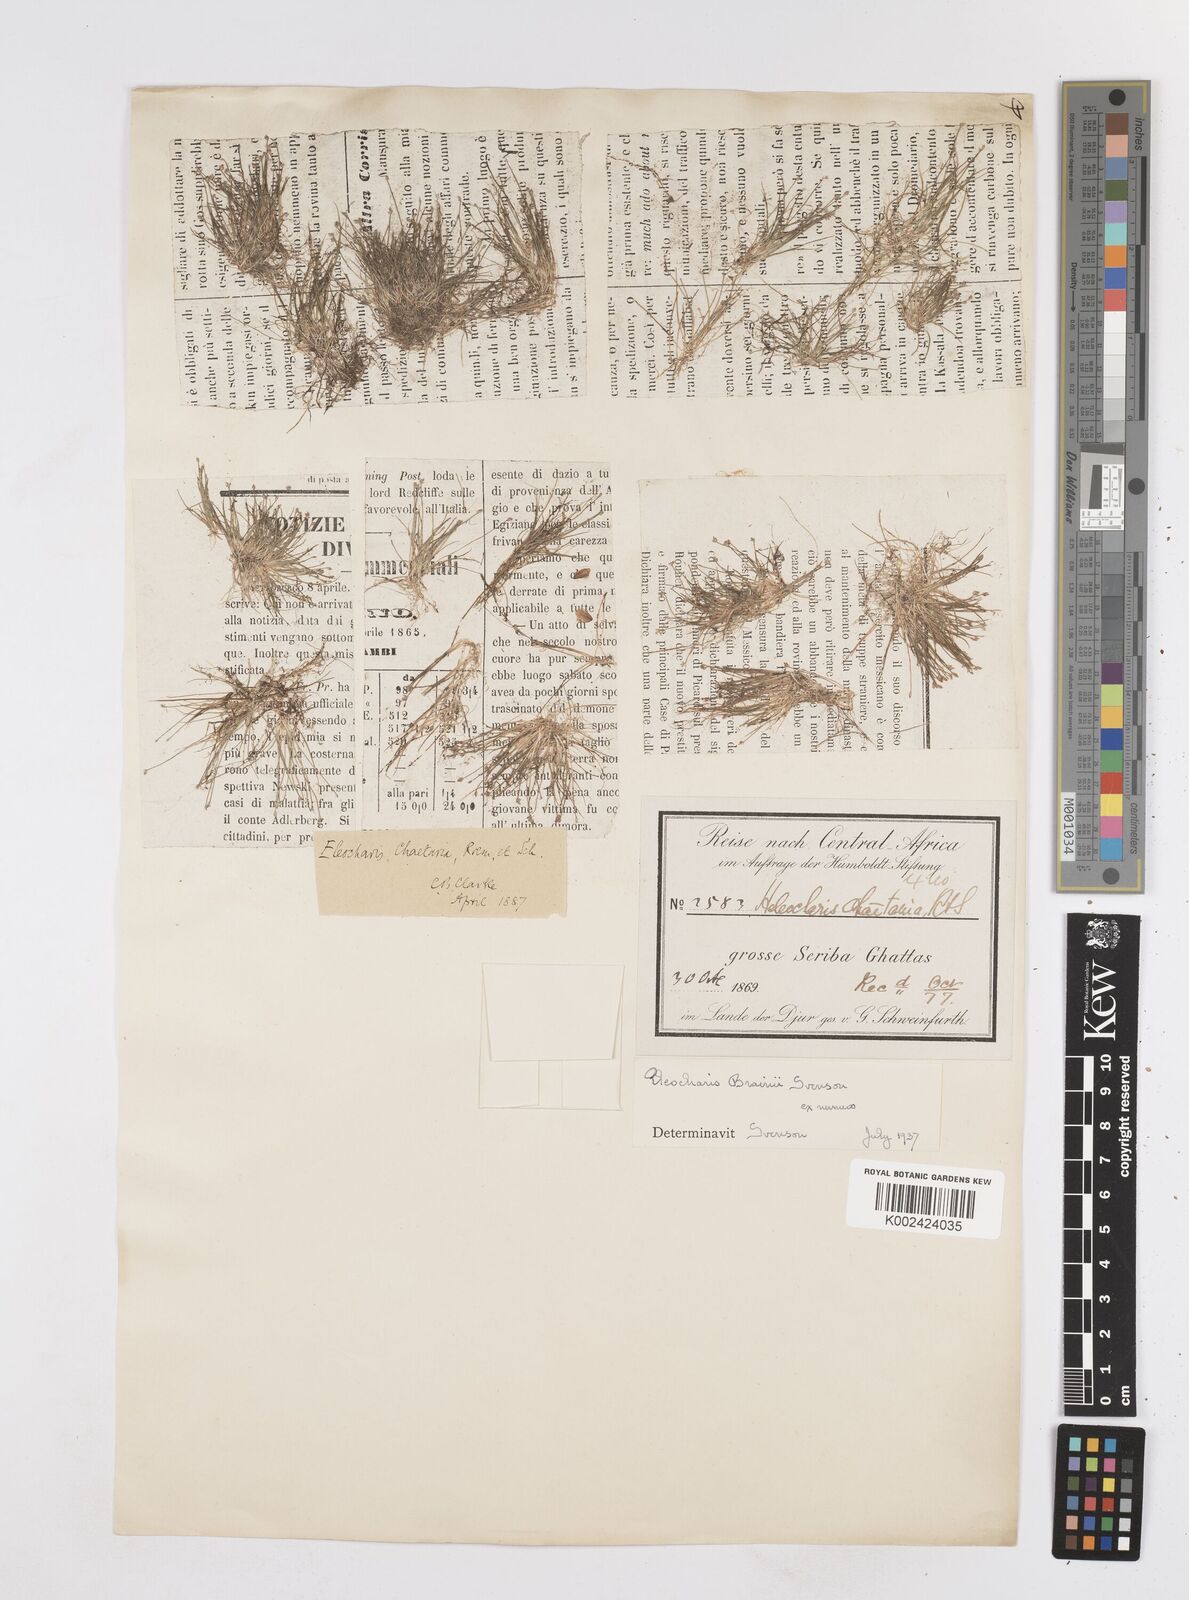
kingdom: Plantae
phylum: Tracheophyta
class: Liliopsida
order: Poales
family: Cyperaceae
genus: Eleocharis
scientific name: Eleocharis brainii
